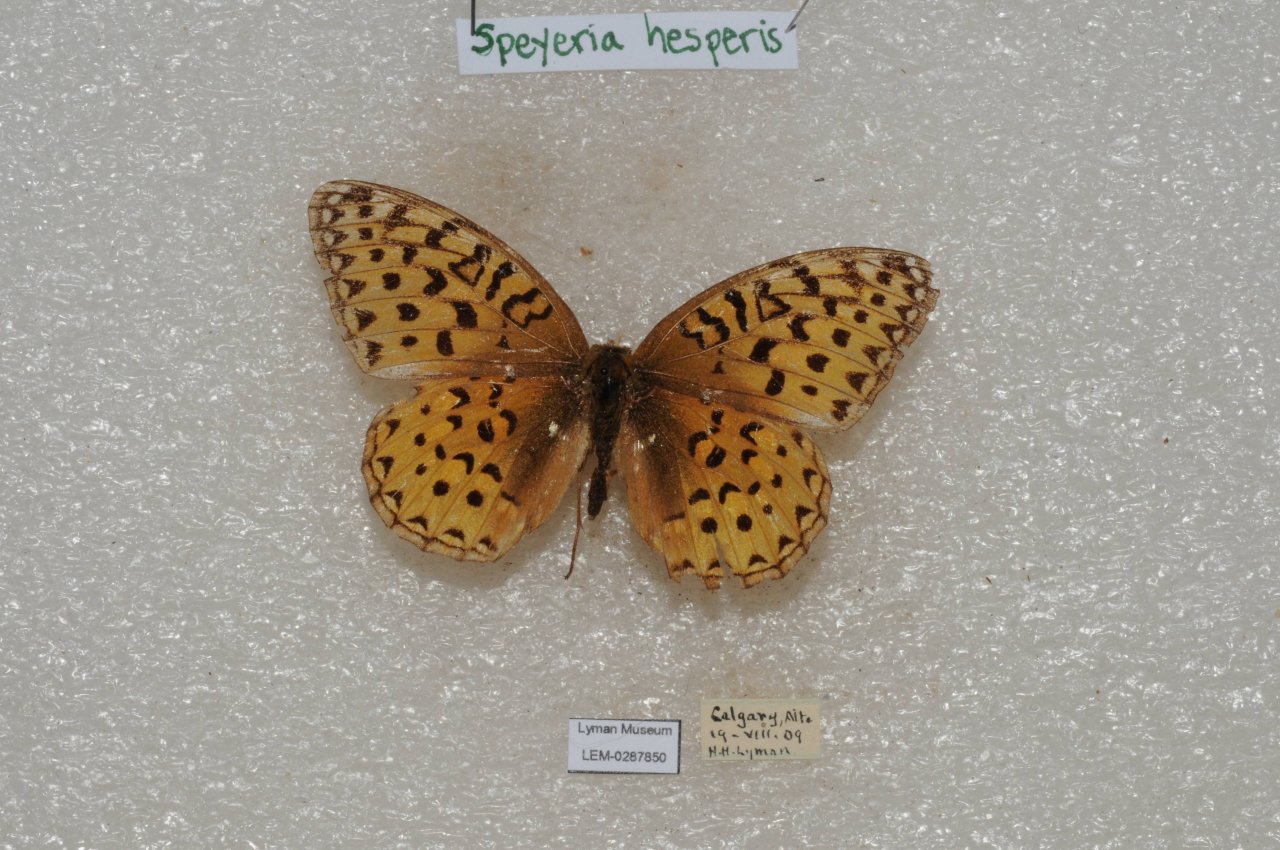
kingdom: Animalia
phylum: Arthropoda
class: Insecta
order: Lepidoptera
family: Nymphalidae
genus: Speyeria
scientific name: Speyeria atlantis
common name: Northwestern Fritillary
